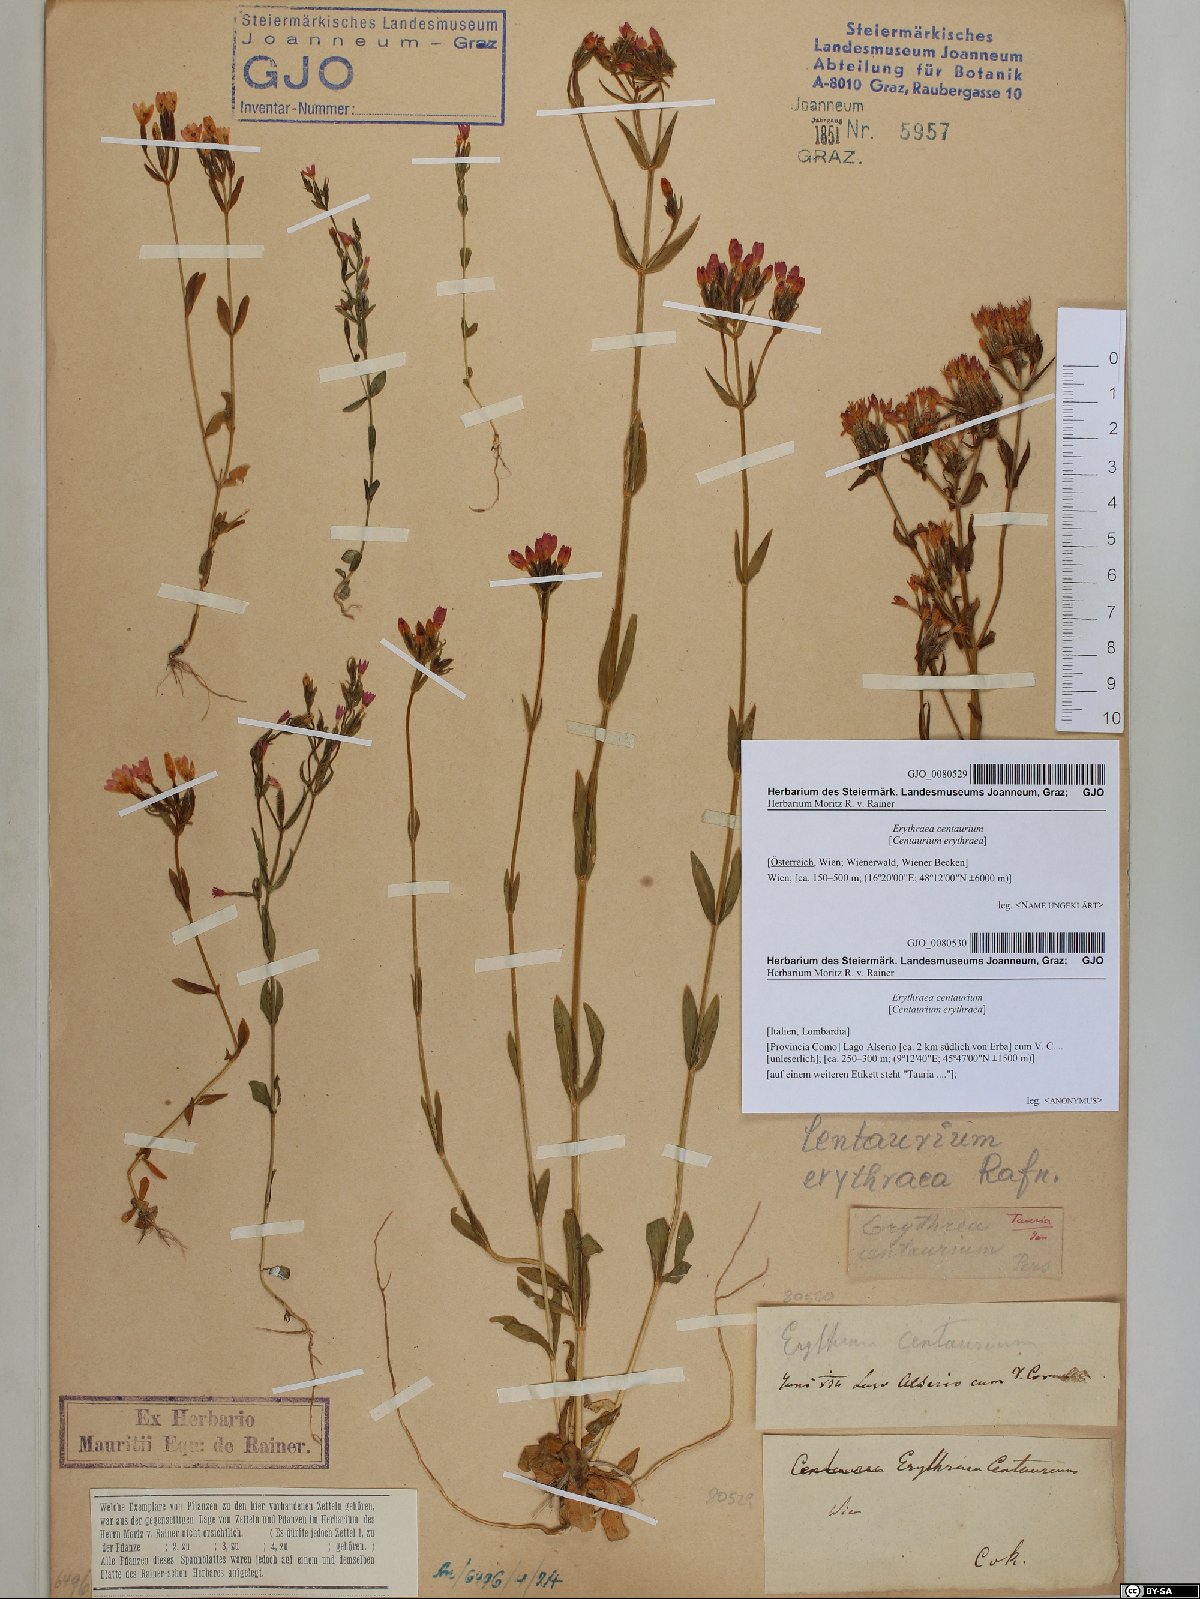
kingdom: Plantae
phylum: Tracheophyta
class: Magnoliopsida
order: Gentianales
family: Gentianaceae
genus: Centaurium
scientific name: Centaurium erythraea
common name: Common centaury
